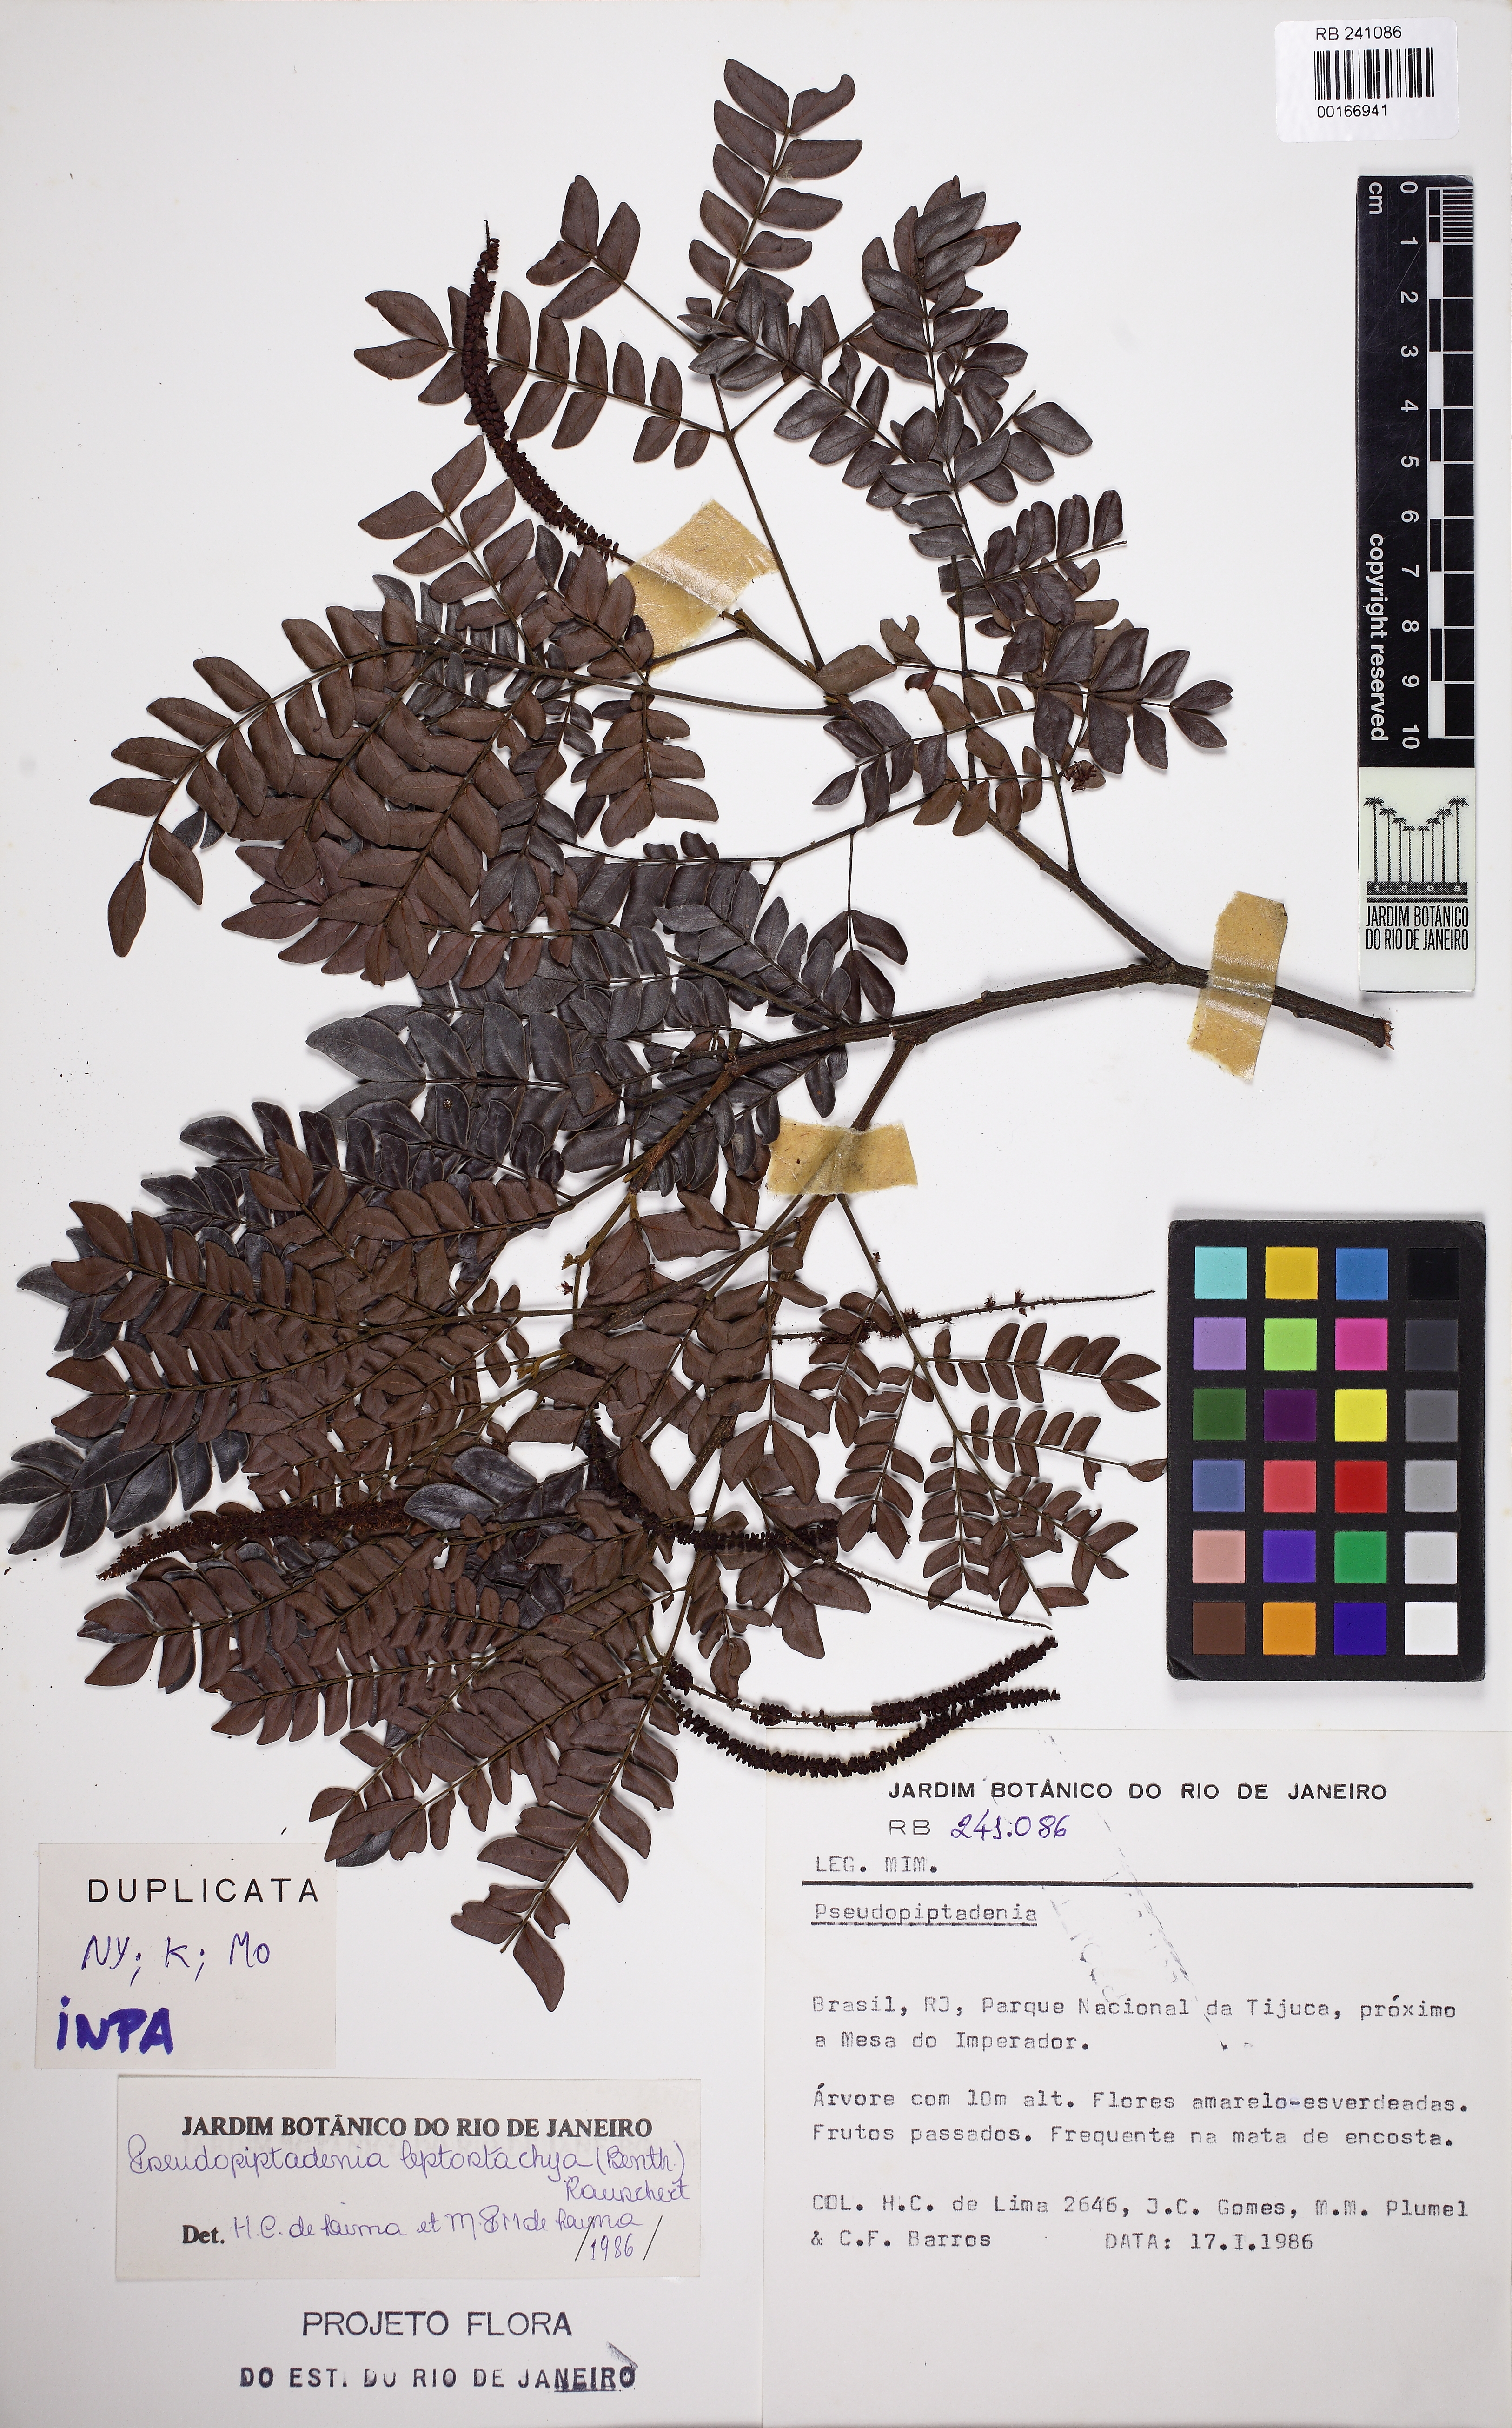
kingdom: Plantae
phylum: Tracheophyta
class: Magnoliopsida
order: Fabales
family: Fabaceae
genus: Pseudopiptadenia
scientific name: Pseudopiptadenia leptostachya
